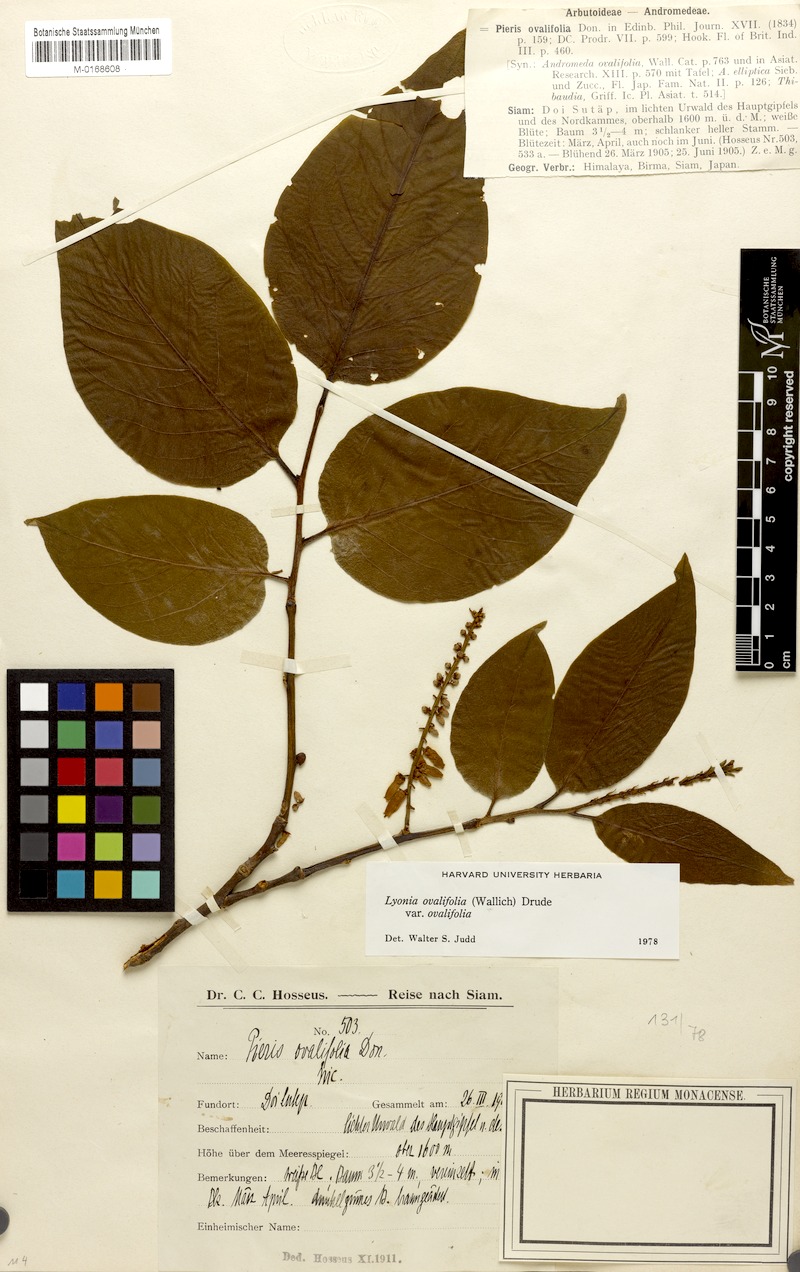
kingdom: Plantae
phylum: Tracheophyta
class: Magnoliopsida
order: Ericales
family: Ericaceae
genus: Lyonia
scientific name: Lyonia ovalifolia
